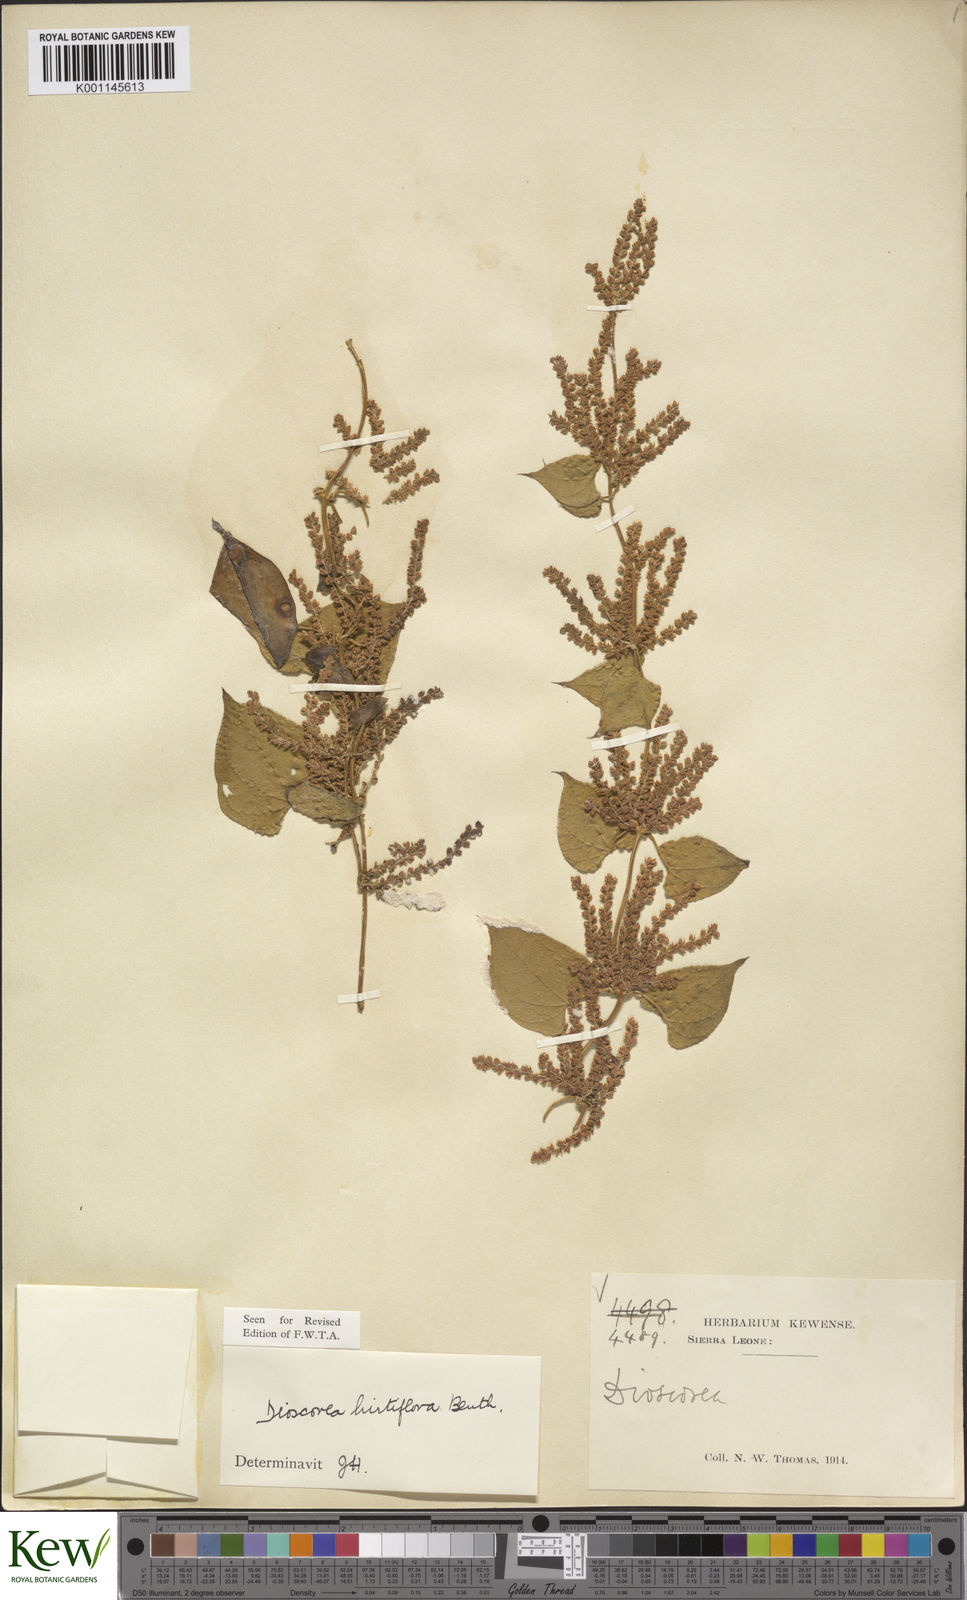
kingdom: Plantae
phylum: Tracheophyta
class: Liliopsida
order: Dioscoreales
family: Dioscoreaceae
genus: Dioscorea
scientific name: Dioscorea hirtiflora
